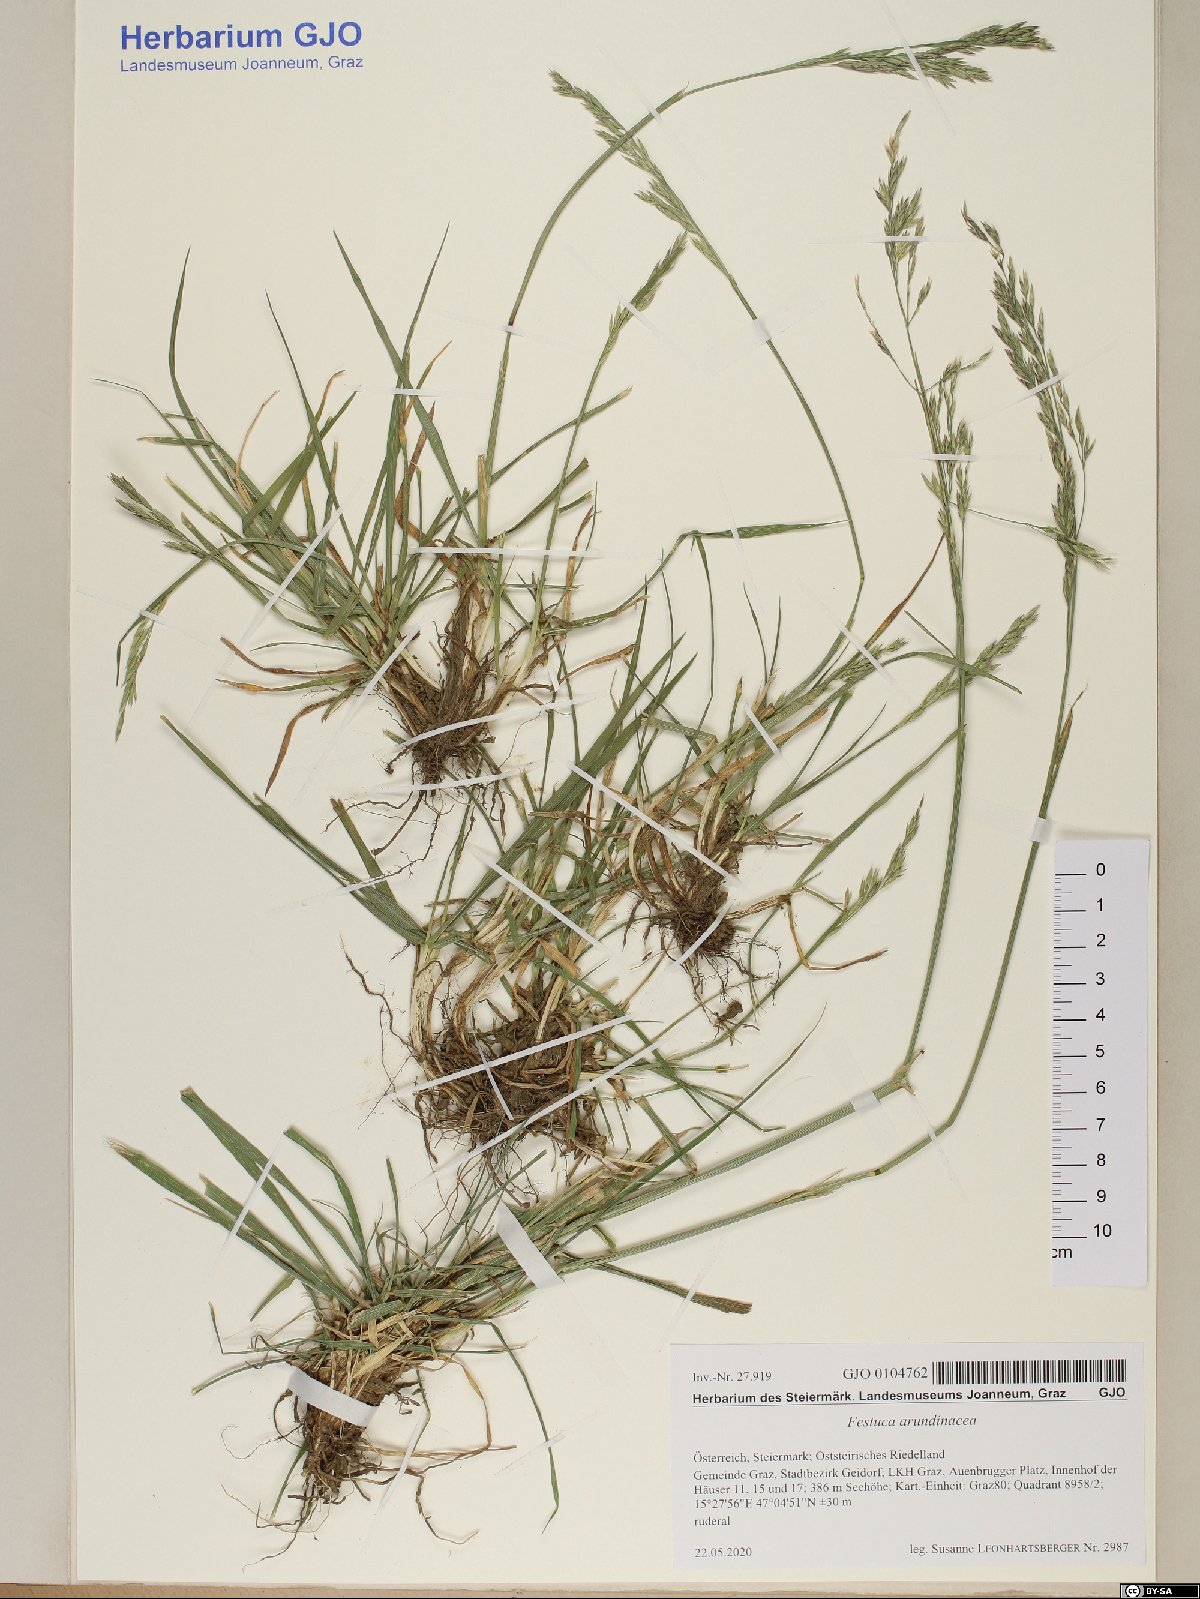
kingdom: Plantae
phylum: Tracheophyta
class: Liliopsida
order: Poales
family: Poaceae
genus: Lolium
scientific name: Lolium arundinaceum
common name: Reed fescue
